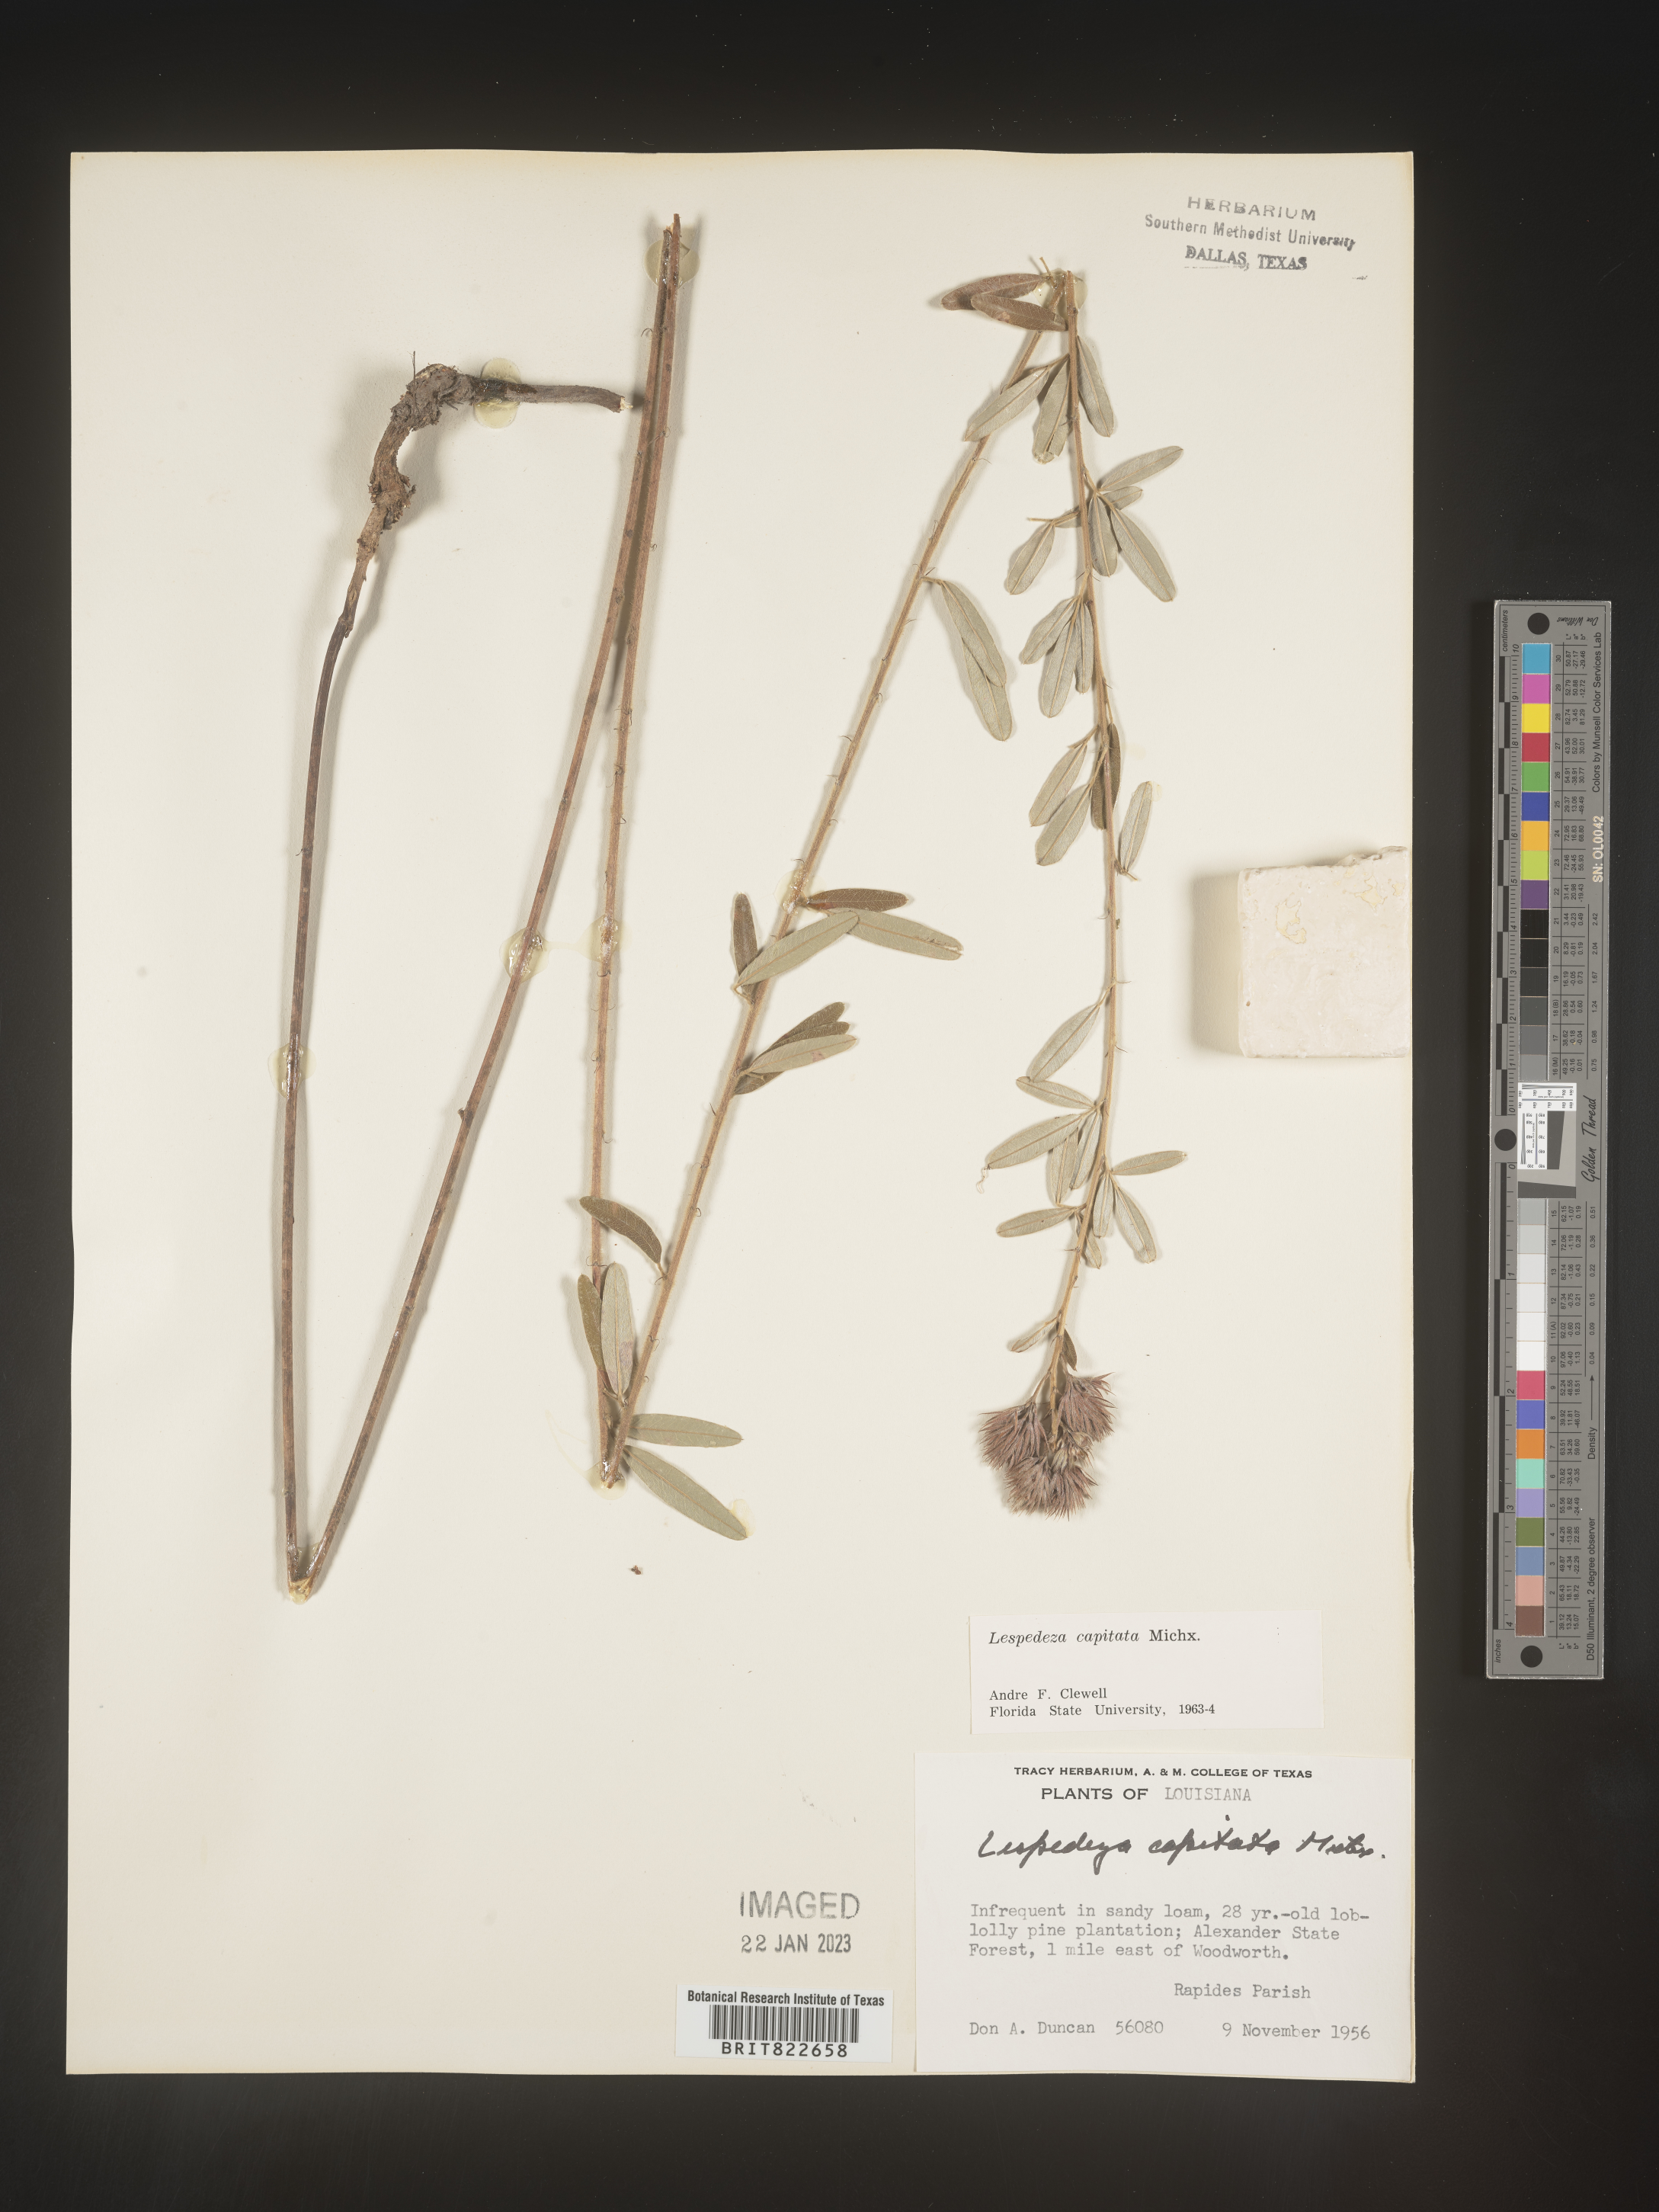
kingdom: Plantae
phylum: Tracheophyta
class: Magnoliopsida
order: Fabales
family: Fabaceae
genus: Lespedeza
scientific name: Lespedeza capitata
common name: Dusty clover
